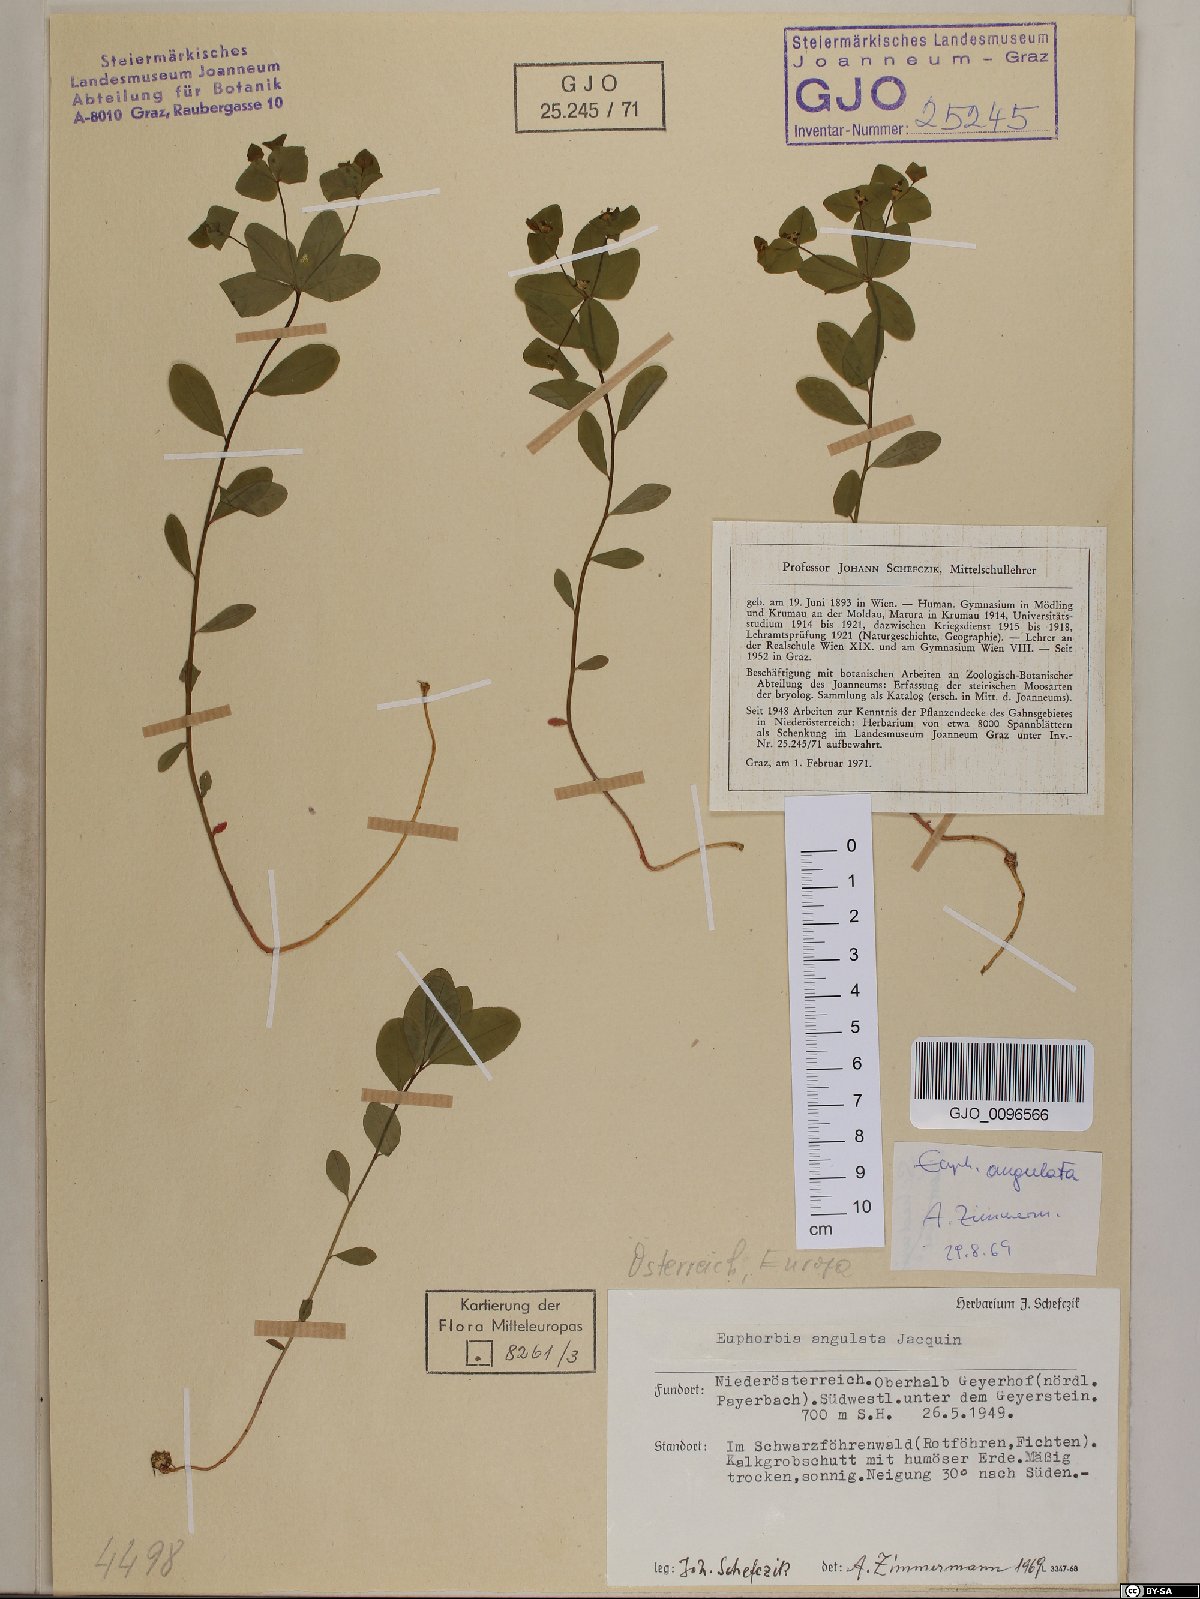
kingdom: Plantae
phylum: Tracheophyta
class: Magnoliopsida
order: Malpighiales
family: Euphorbiaceae
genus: Euphorbia
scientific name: Euphorbia angulata
